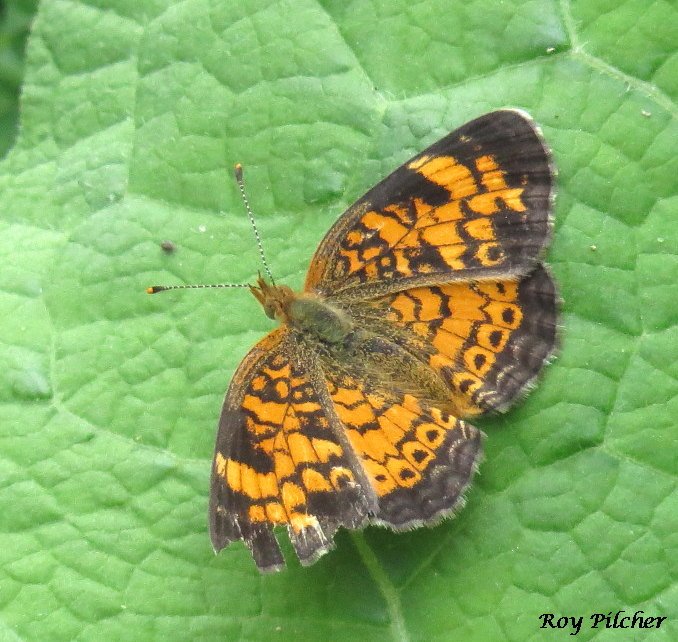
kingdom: Animalia
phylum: Arthropoda
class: Insecta
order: Lepidoptera
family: Nymphalidae
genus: Phyciodes
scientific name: Phyciodes tharos
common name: Pearl Crescent
